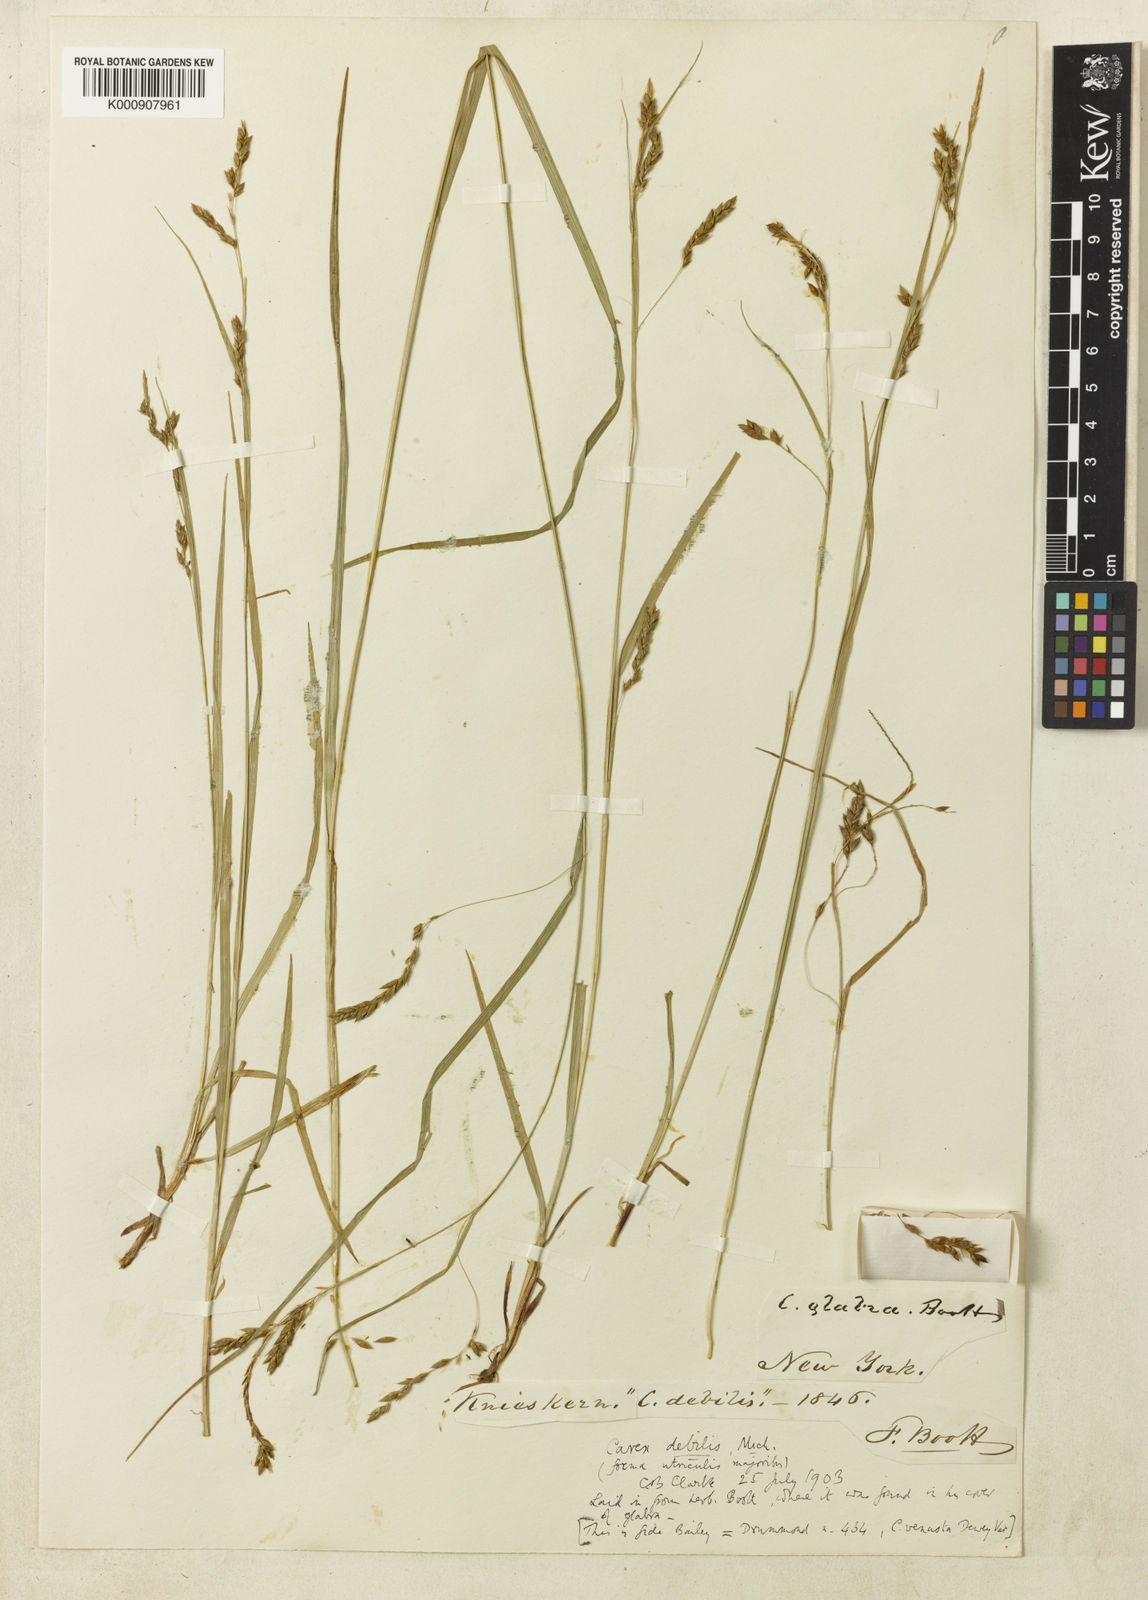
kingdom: Plantae
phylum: Tracheophyta
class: Liliopsida
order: Poales
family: Cyperaceae
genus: Carex
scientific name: Carex venusta
